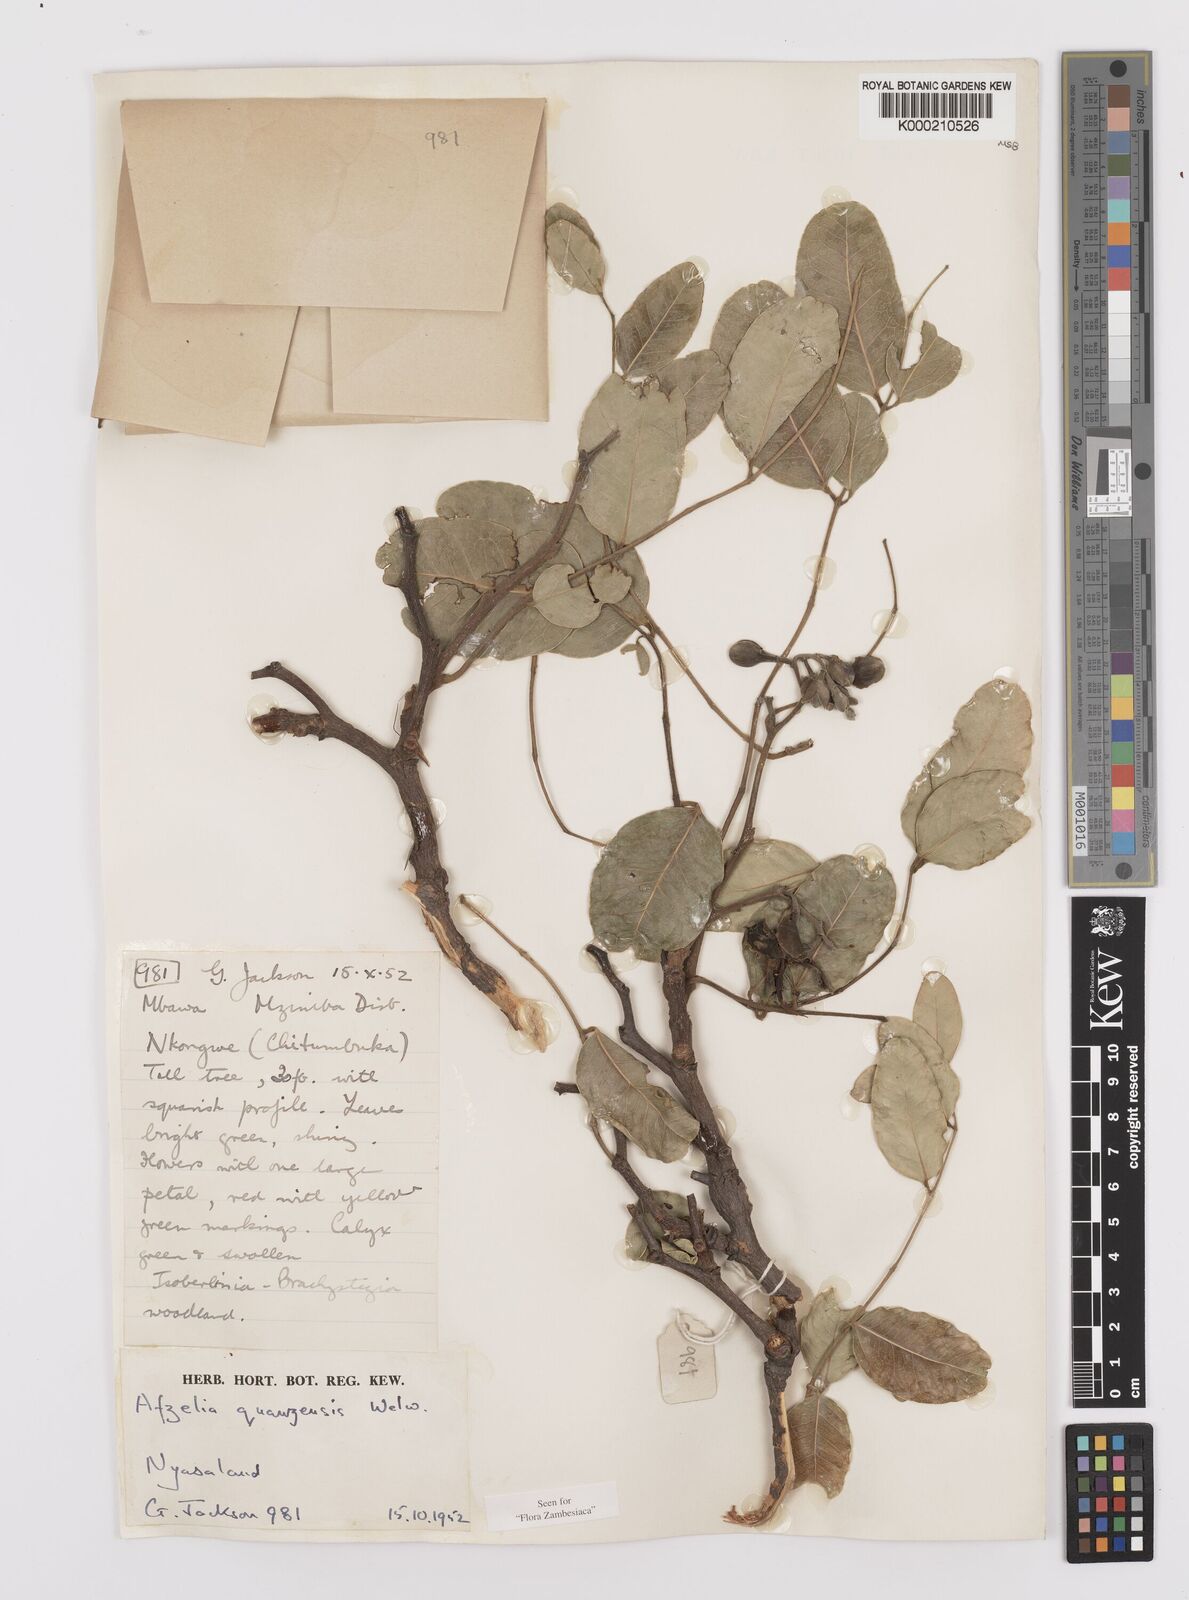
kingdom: Plantae
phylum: Tracheophyta
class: Magnoliopsida
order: Fabales
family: Fabaceae
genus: Afzelia
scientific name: Afzelia quanzensis
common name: Pod mahogany
